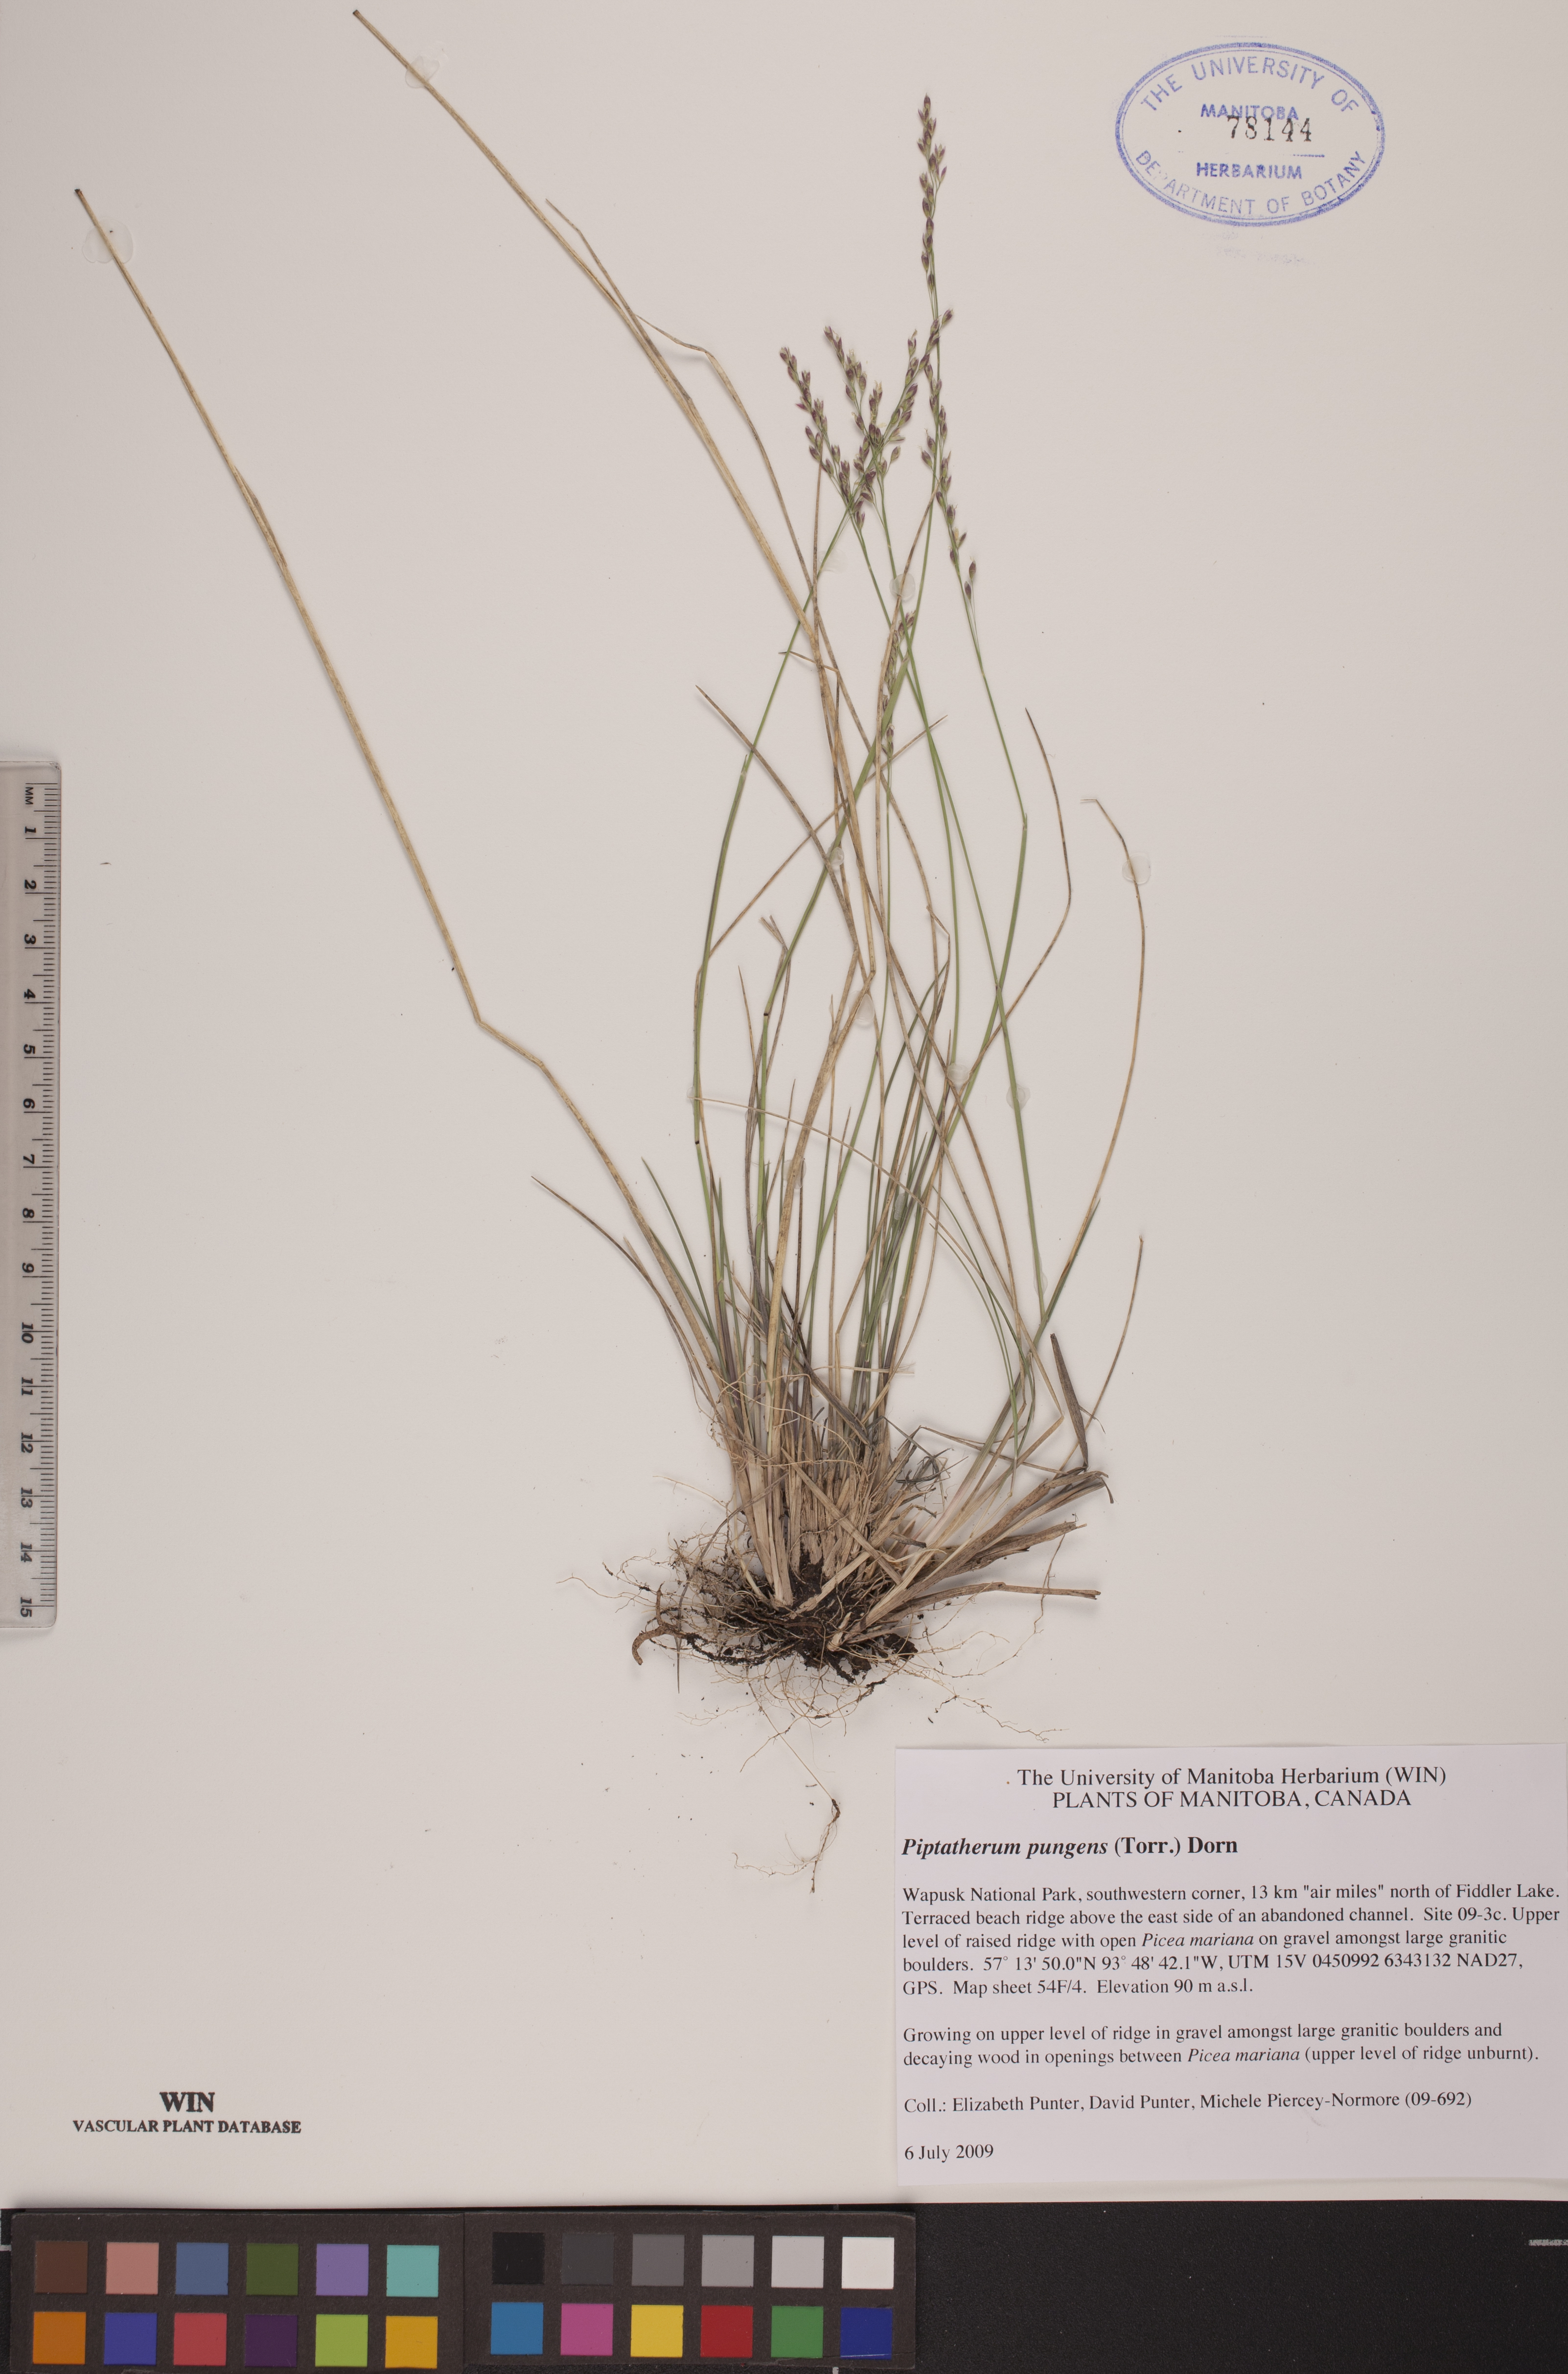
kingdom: Plantae
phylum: Tracheophyta
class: Liliopsida
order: Poales
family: Poaceae
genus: Piptatheropsis
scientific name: Piptatheropsis pungens
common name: Northern ricegrass
